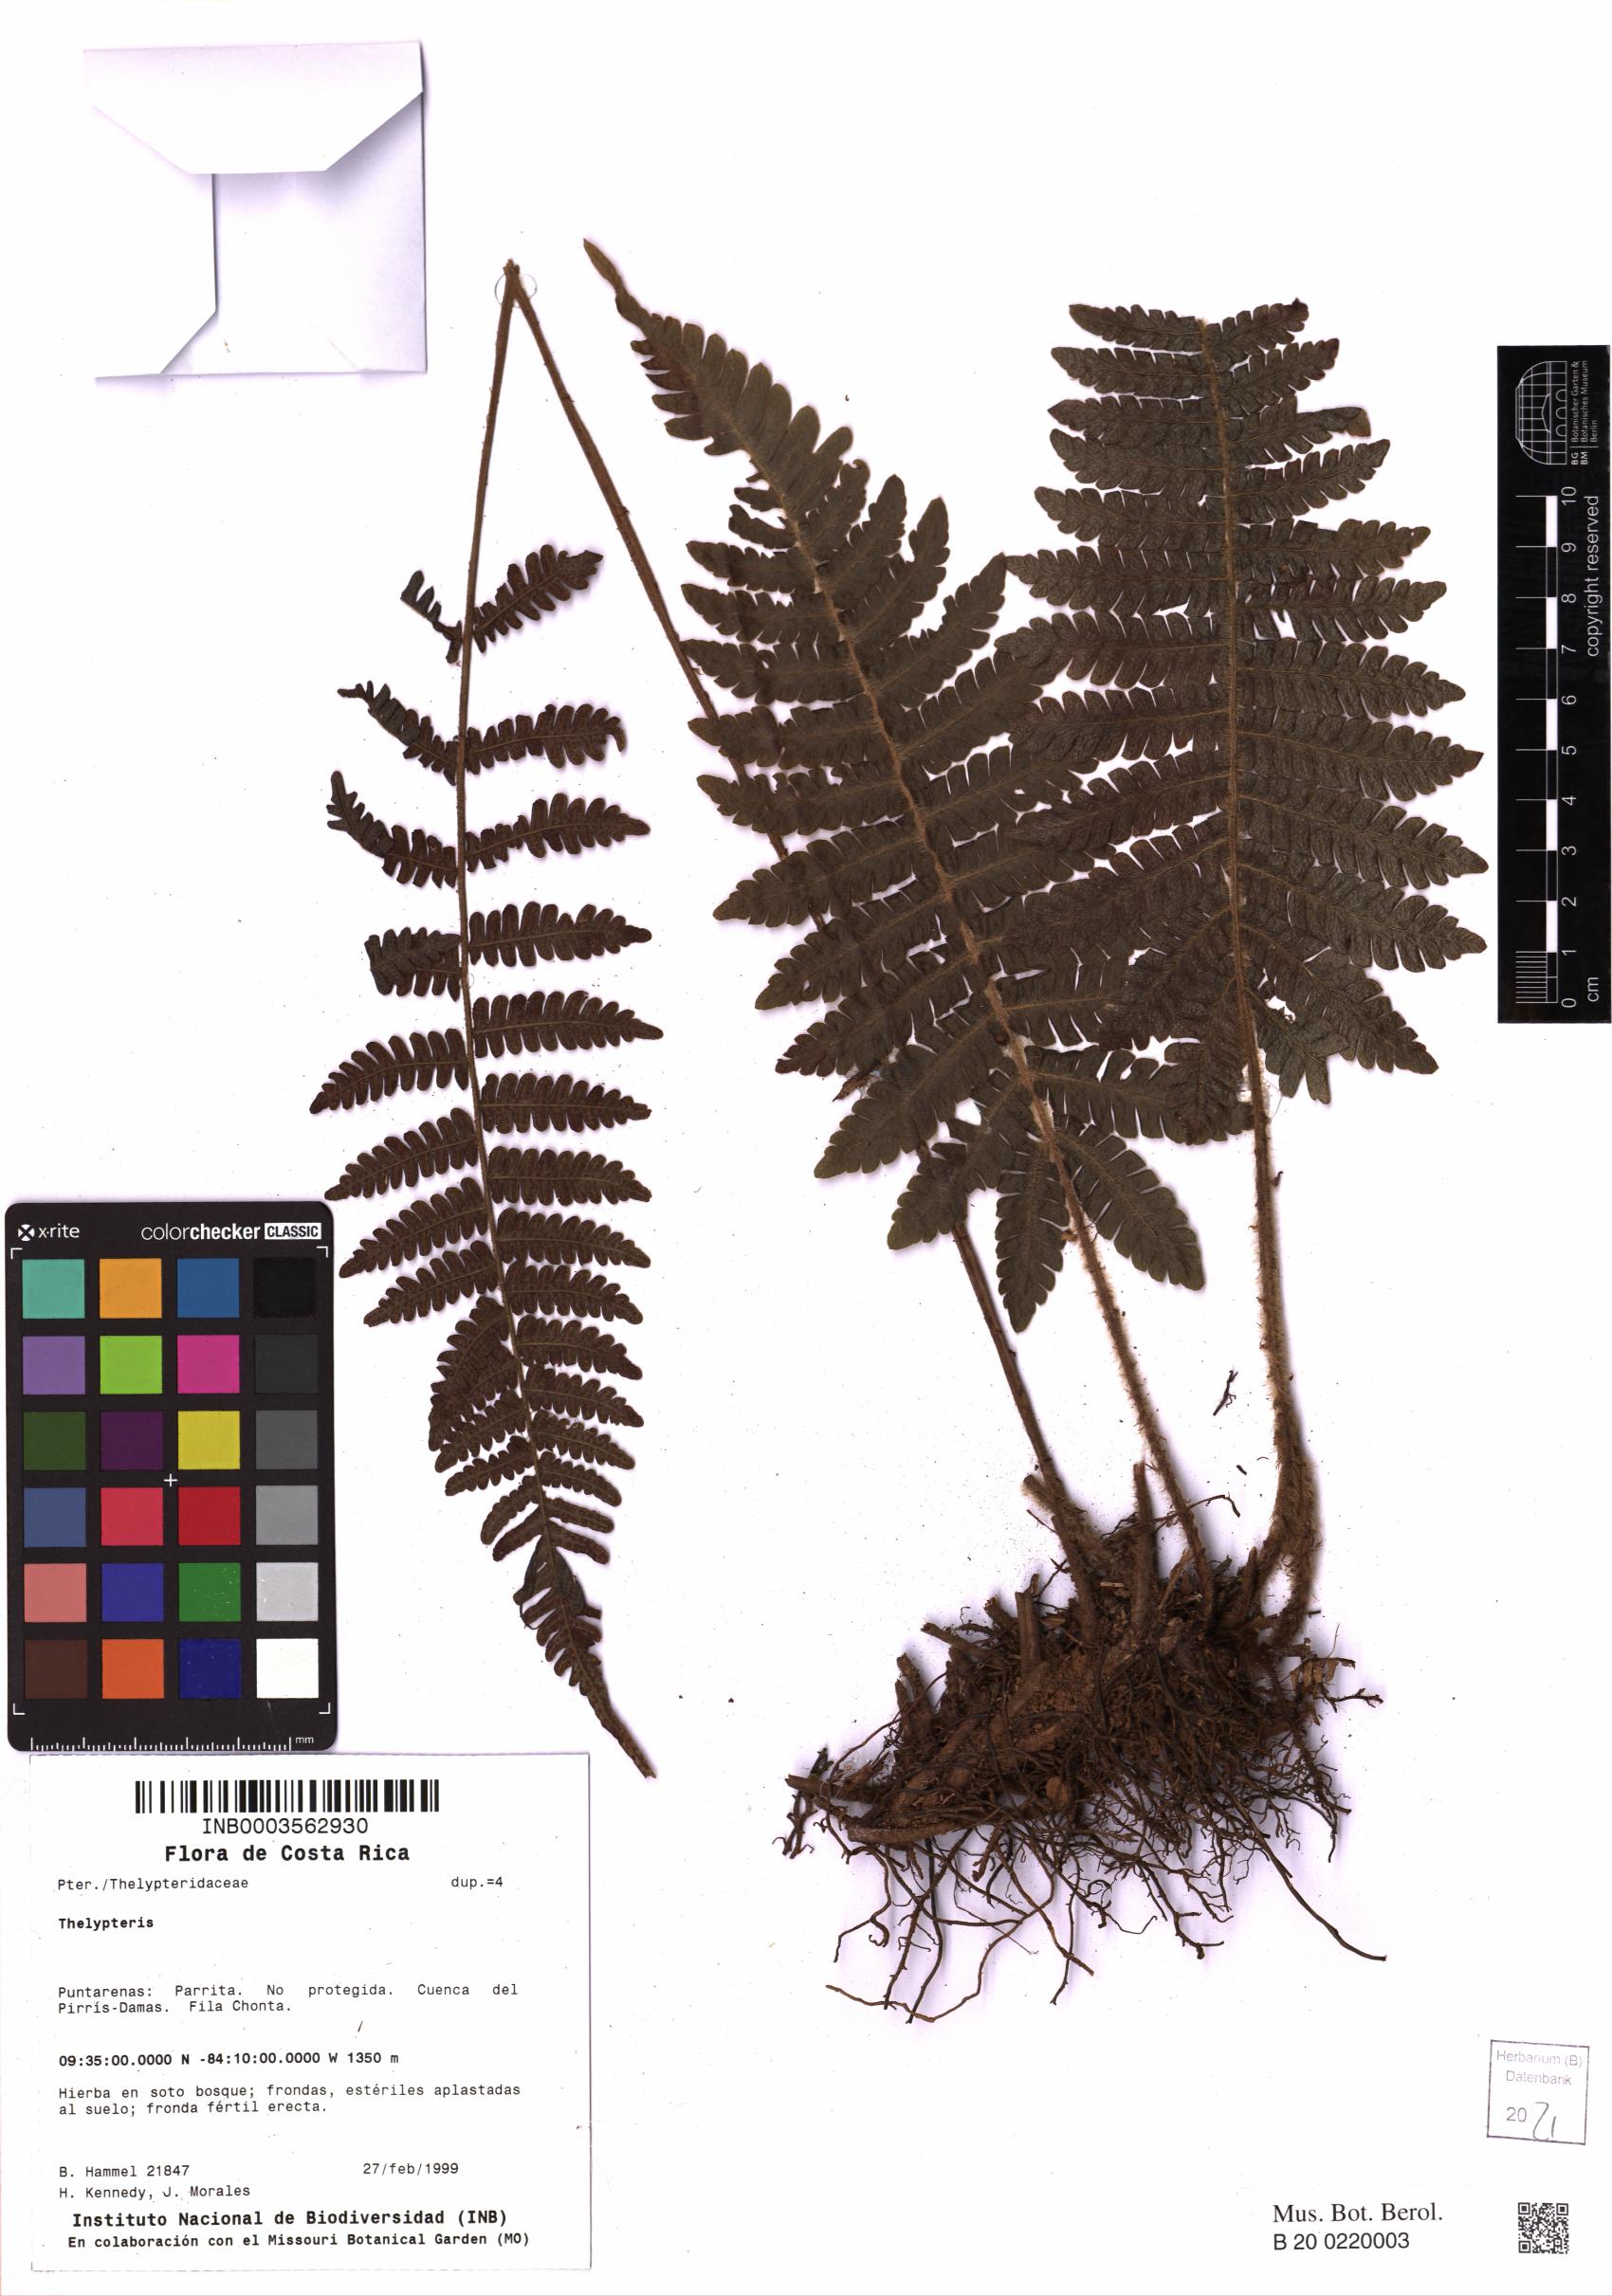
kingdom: Plantae
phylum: Tracheophyta
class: Polypodiopsida
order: Polypodiales
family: Thelypteridaceae
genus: Thelypteris
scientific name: Thelypteris
